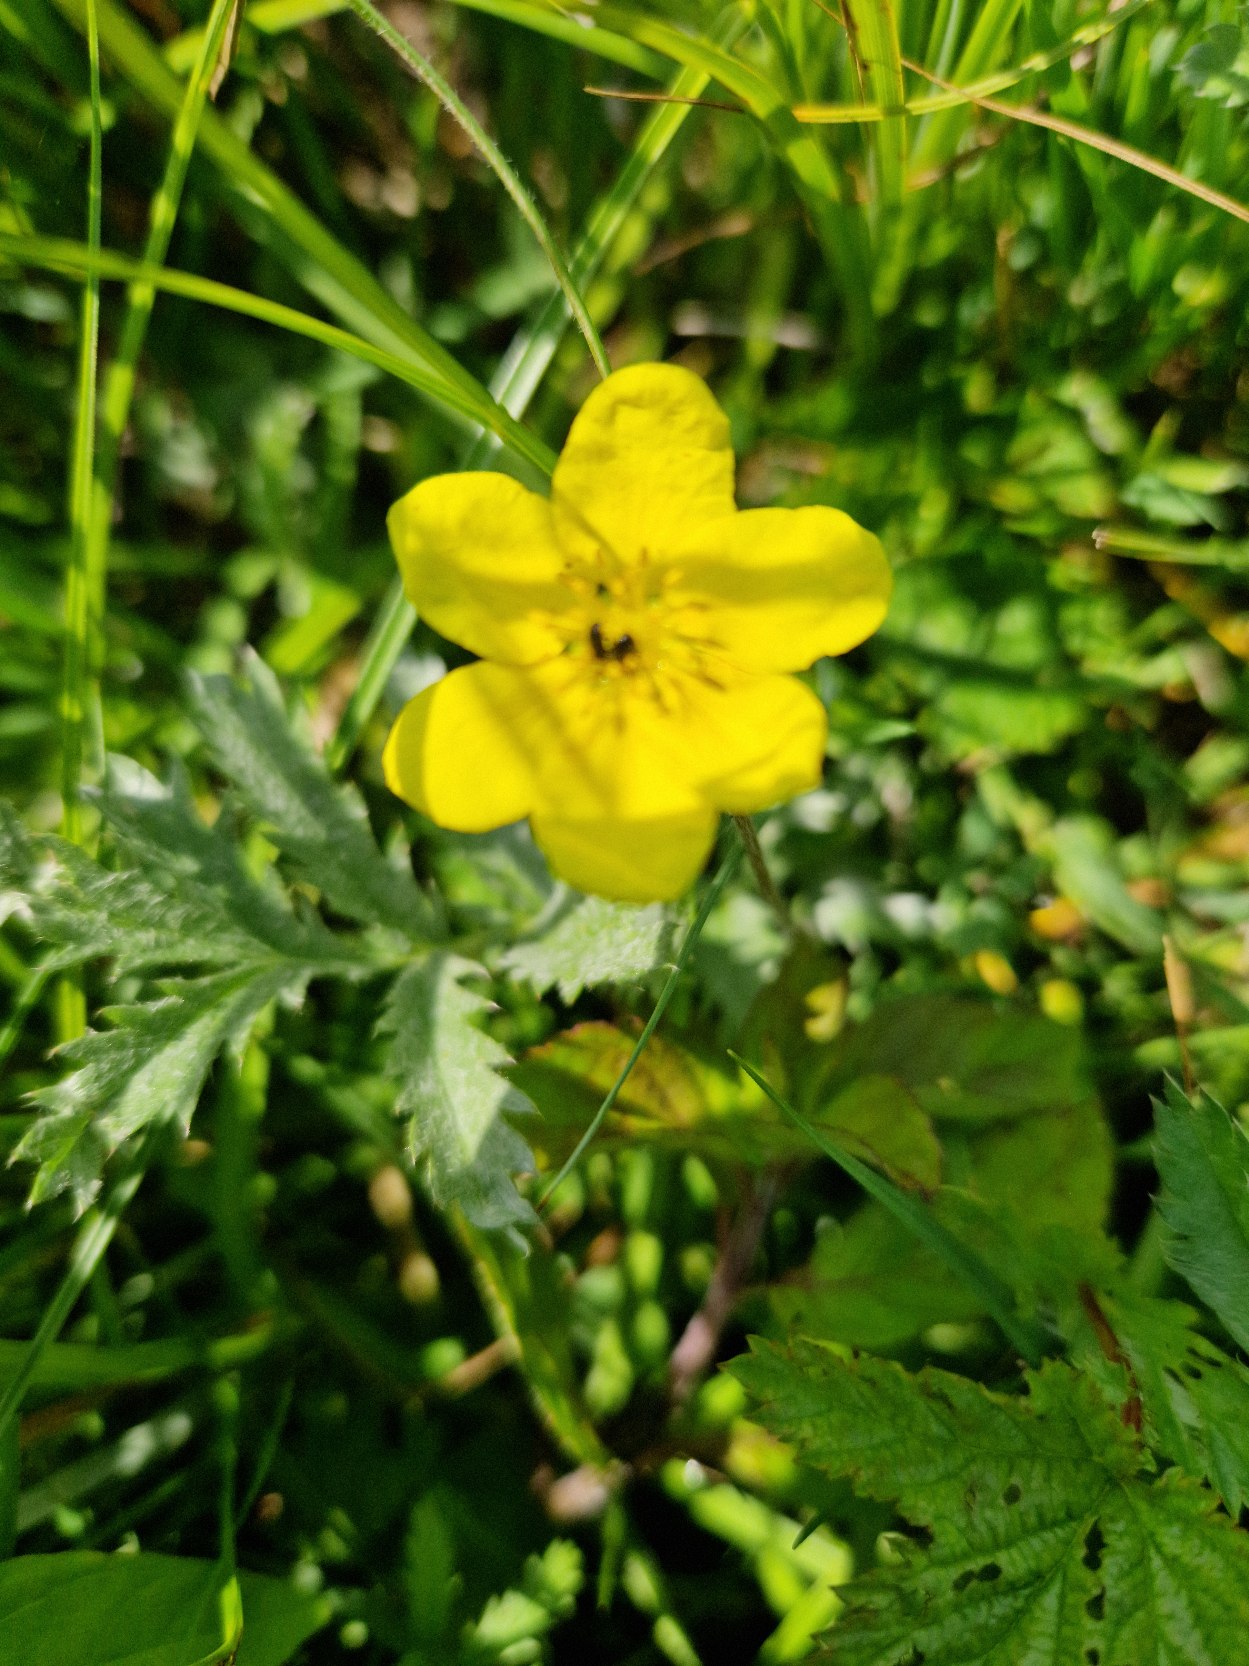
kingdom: Plantae
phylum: Tracheophyta
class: Magnoliopsida
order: Rosales
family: Rosaceae
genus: Argentina
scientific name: Argentina anserina
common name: Gåsepotentil
